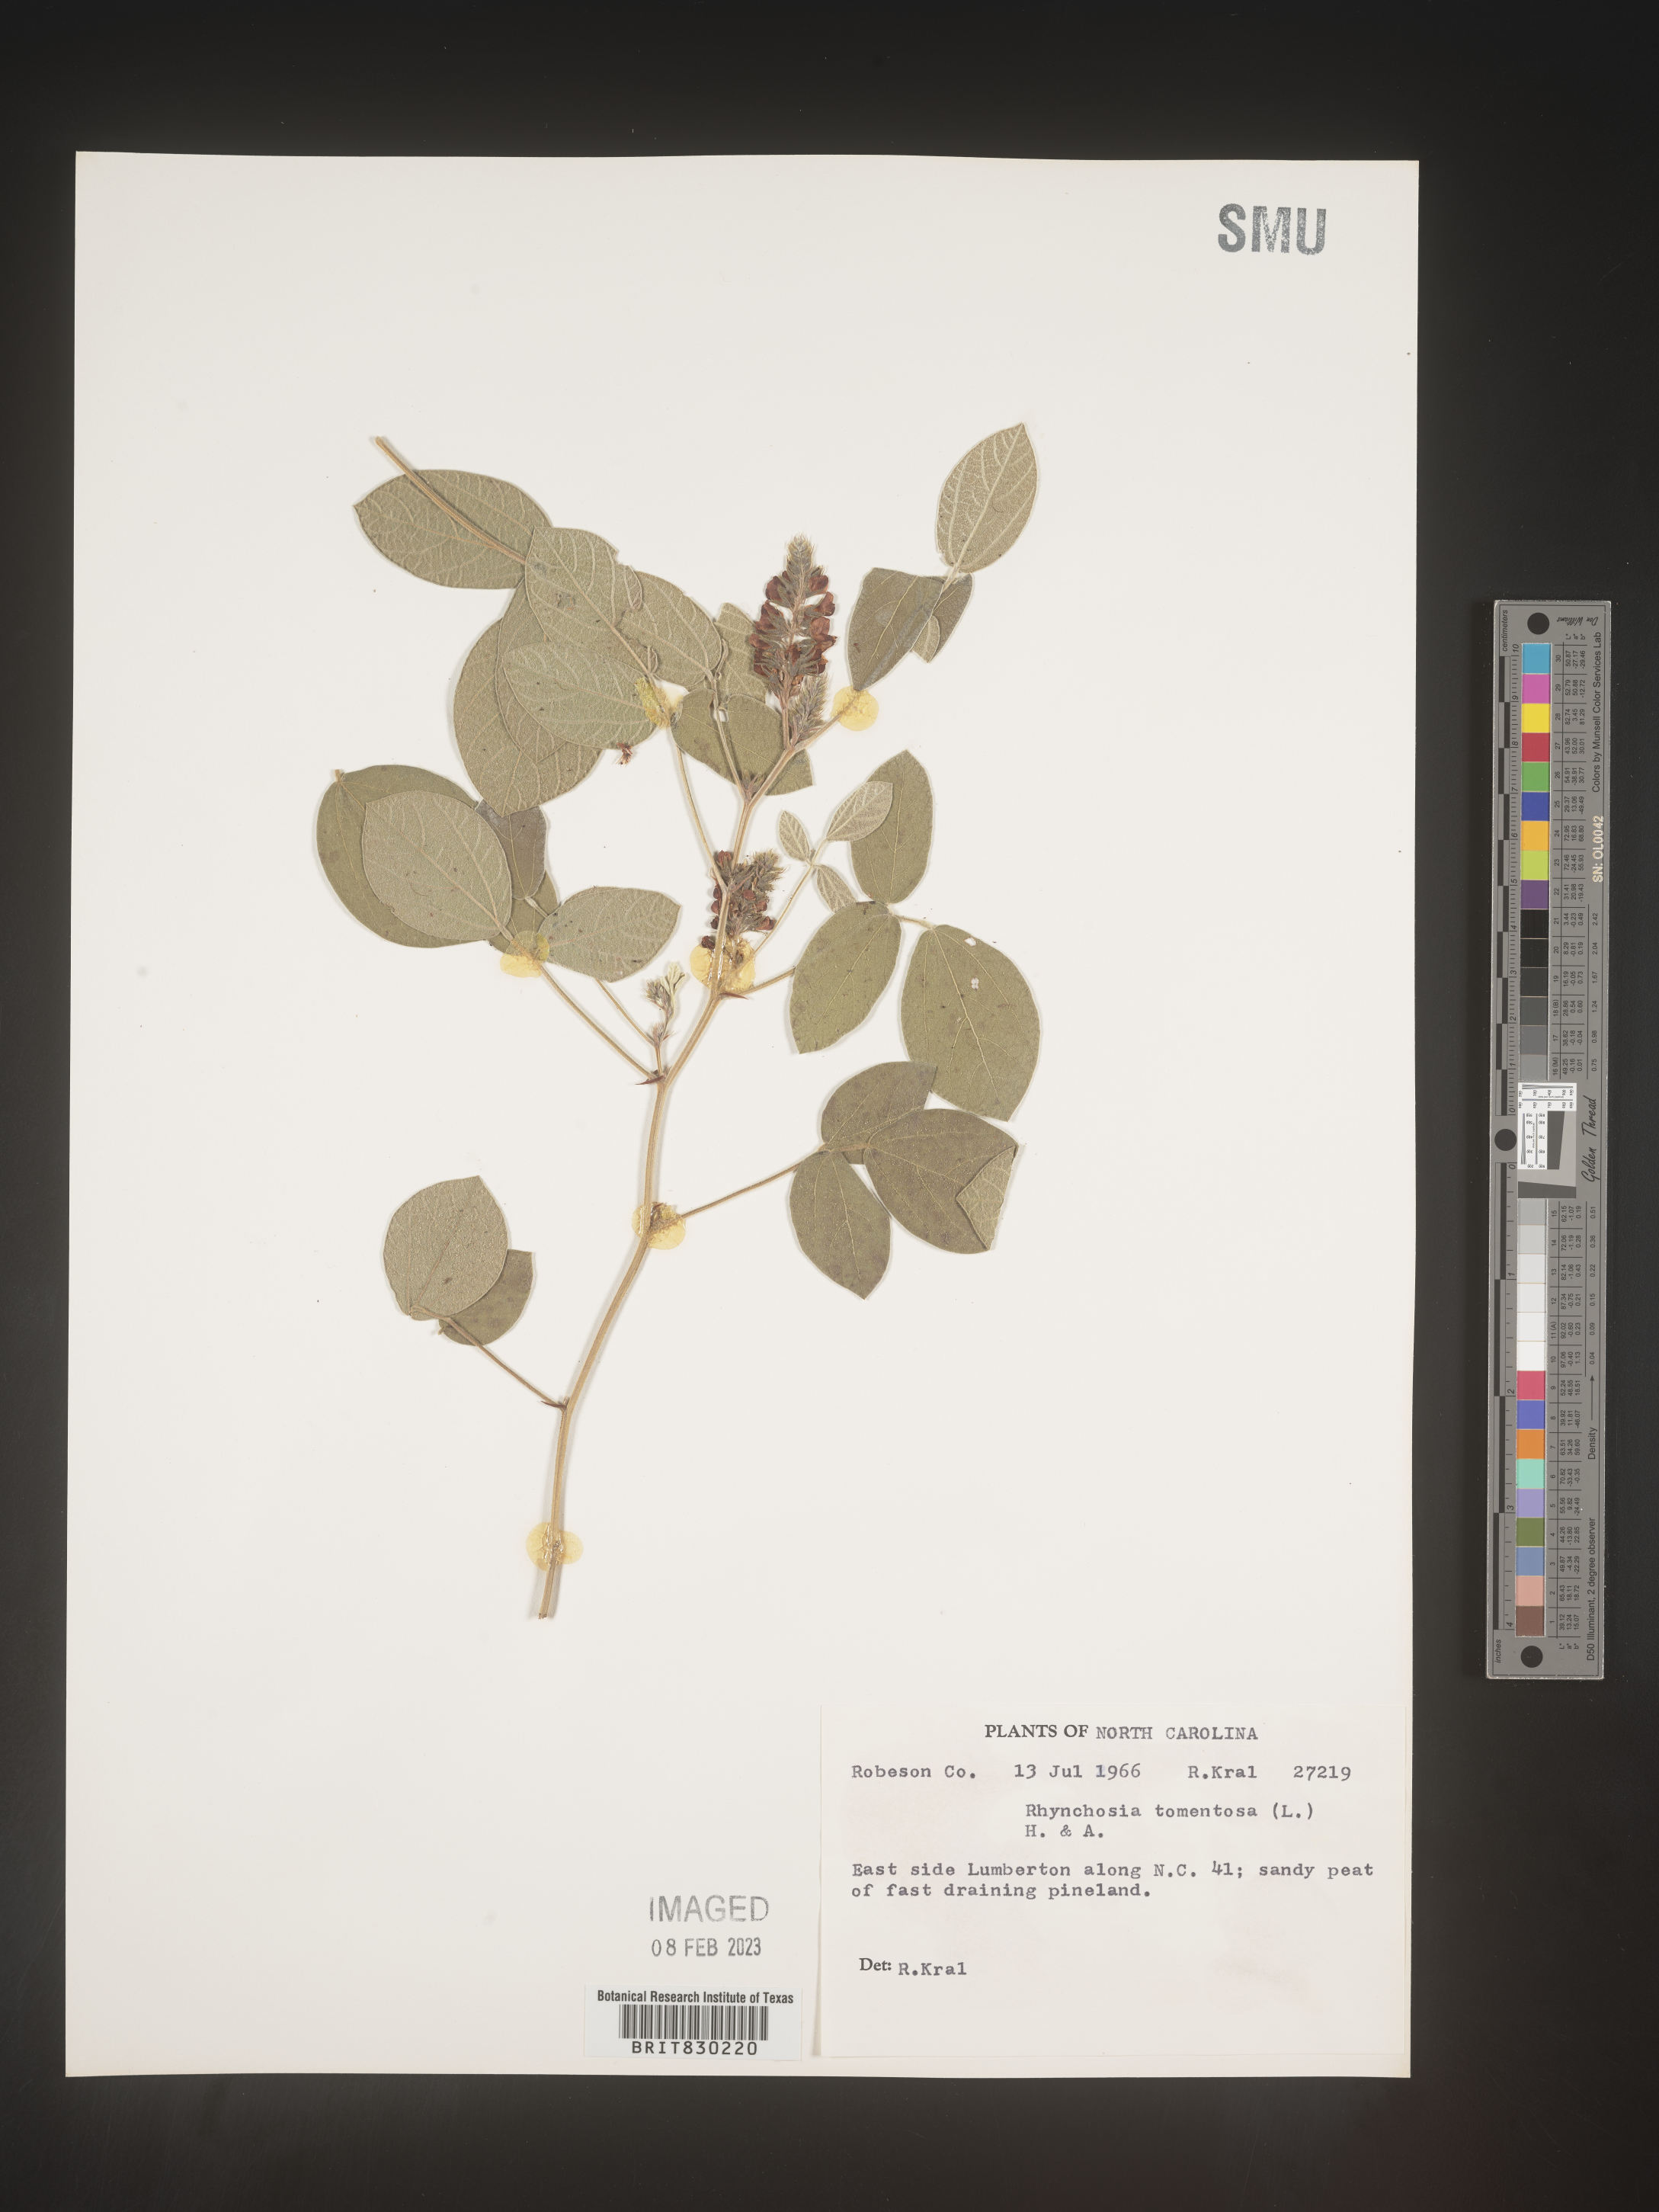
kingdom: Plantae
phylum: Tracheophyta
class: Magnoliopsida
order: Fabales
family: Fabaceae
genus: Rhynchosia
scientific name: Rhynchosia rothii
